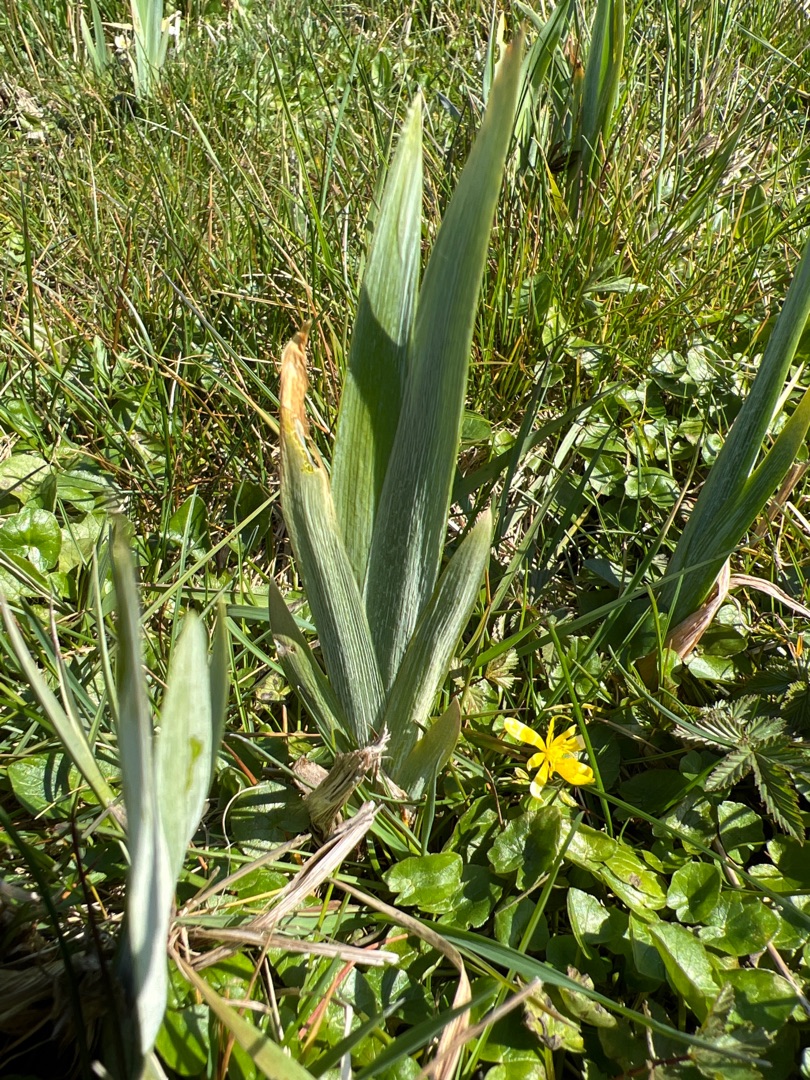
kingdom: Plantae
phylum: Tracheophyta
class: Liliopsida
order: Asparagales
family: Iridaceae
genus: Iris
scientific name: Iris pseudacorus
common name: Gul iris
